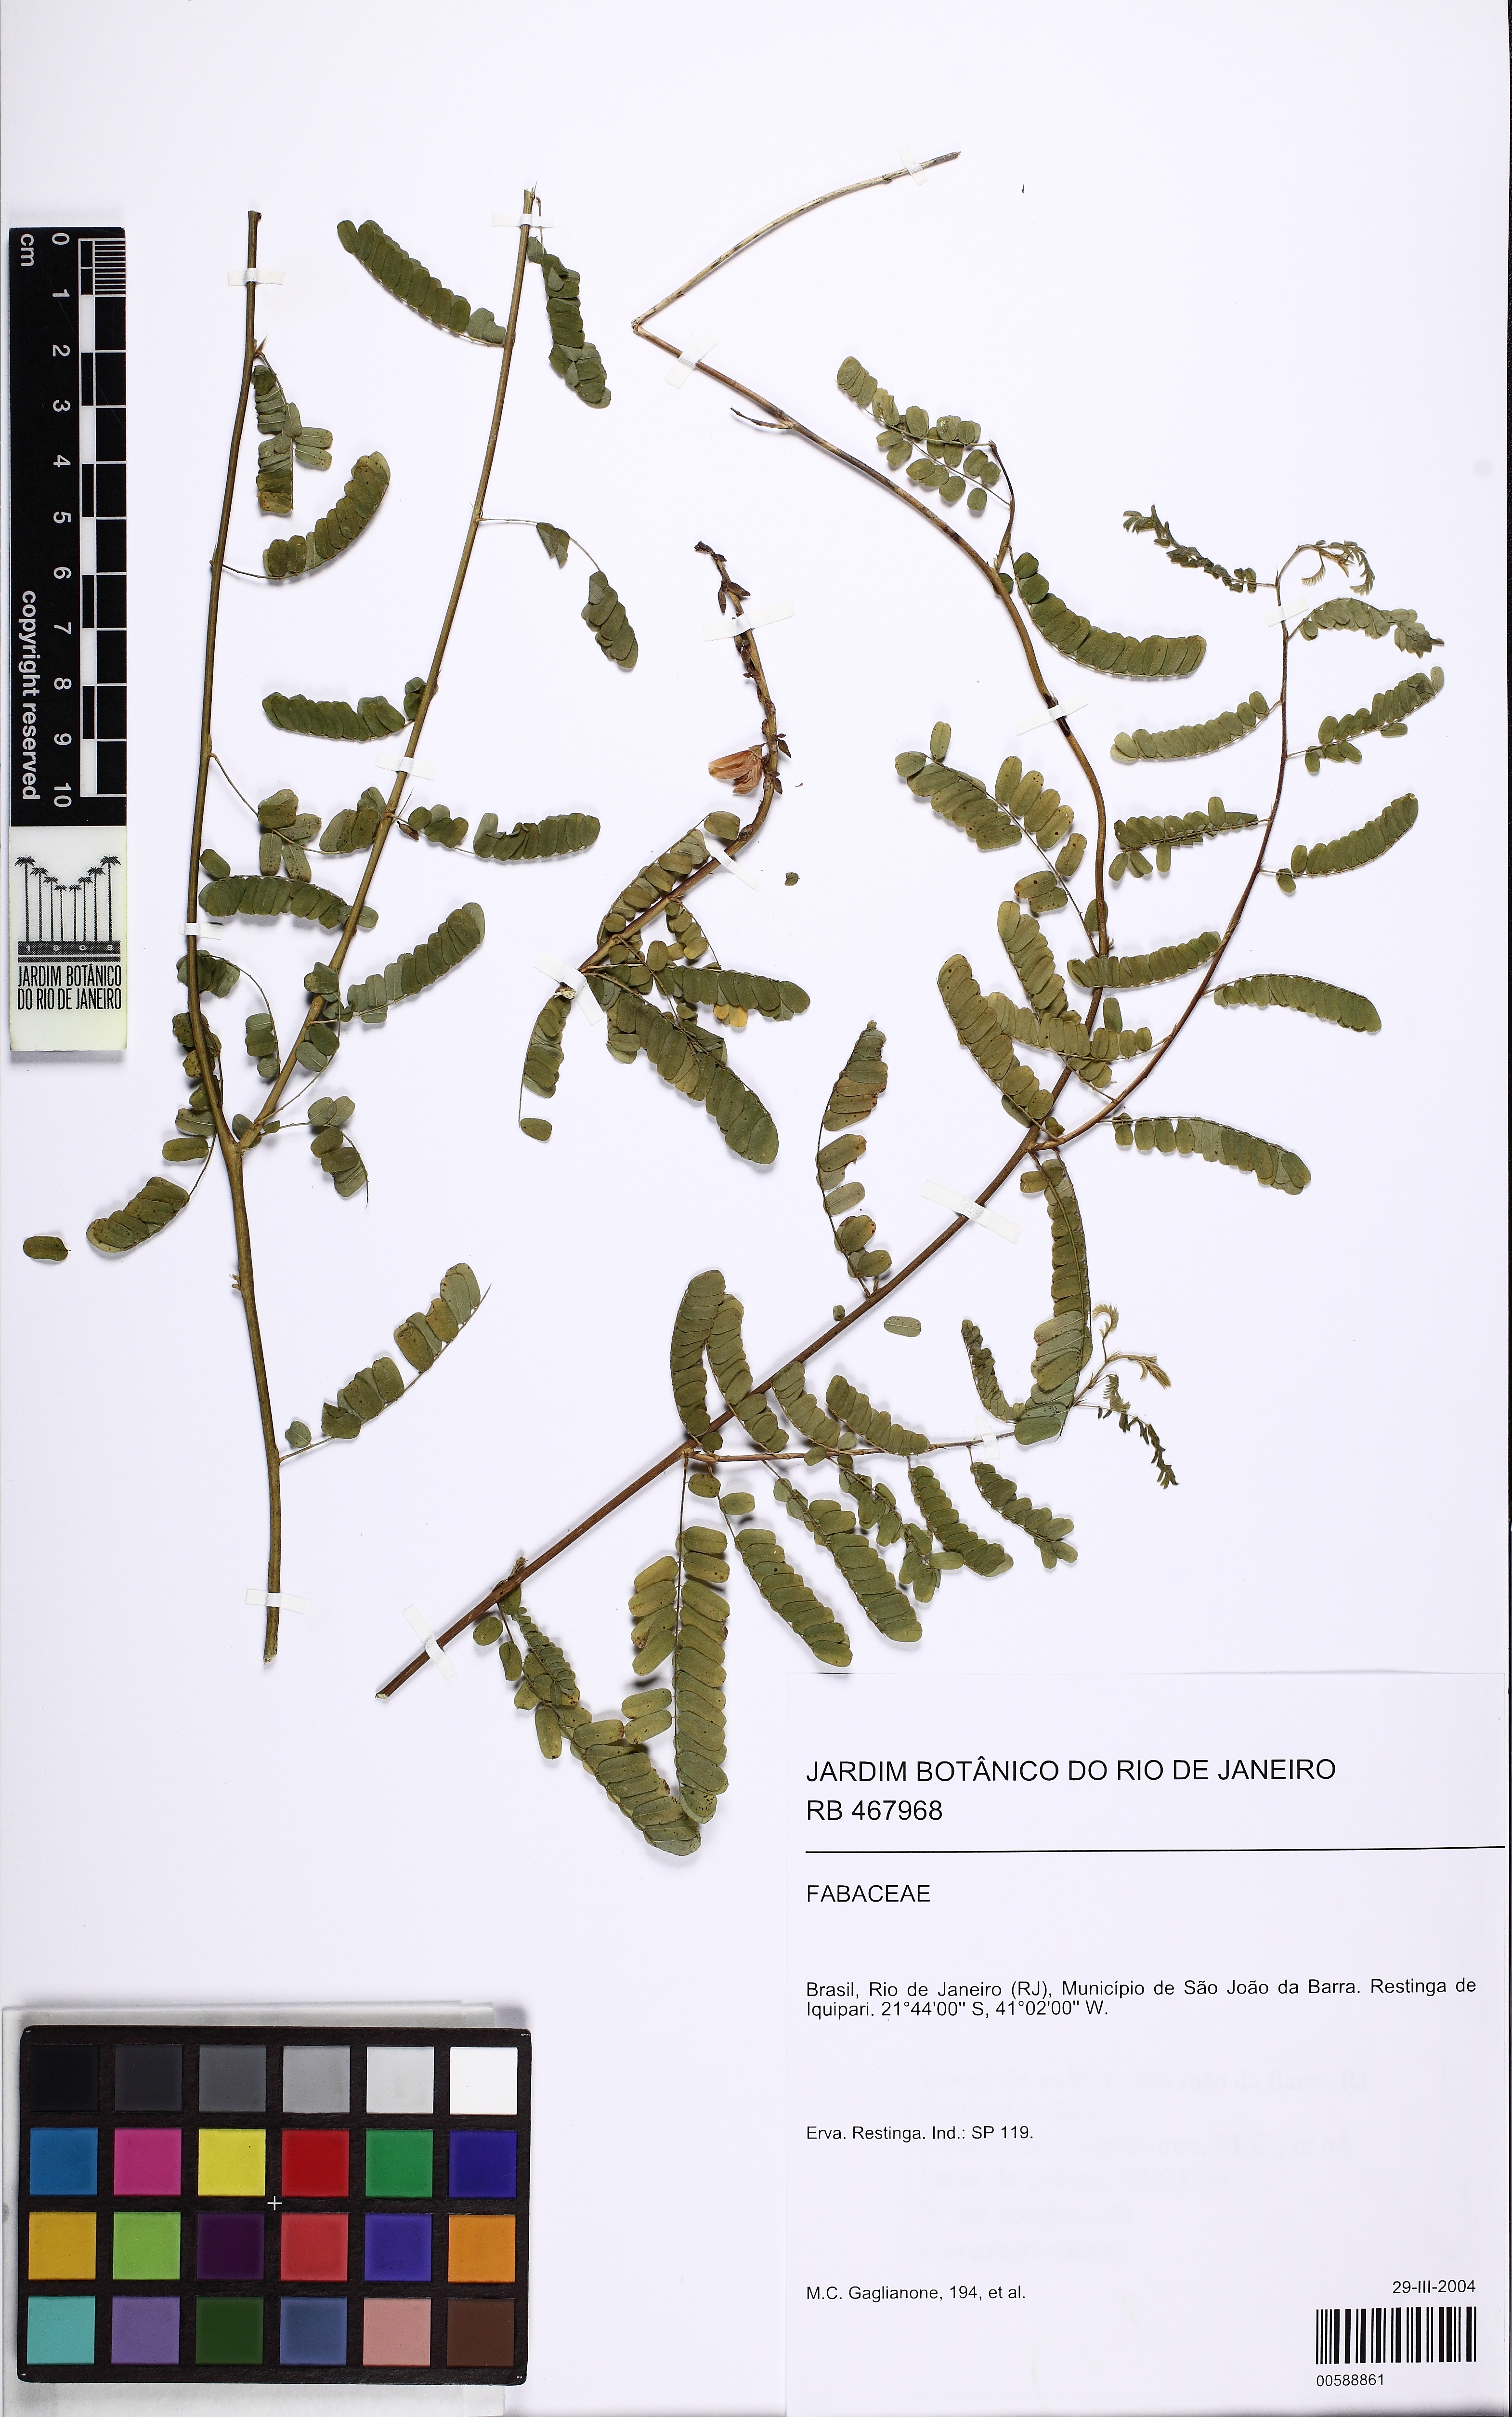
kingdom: Plantae
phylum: Tracheophyta
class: Magnoliopsida
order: Fabales
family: Fabaceae
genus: Abrus
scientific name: Abrus precatorius
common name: Rosarypea
